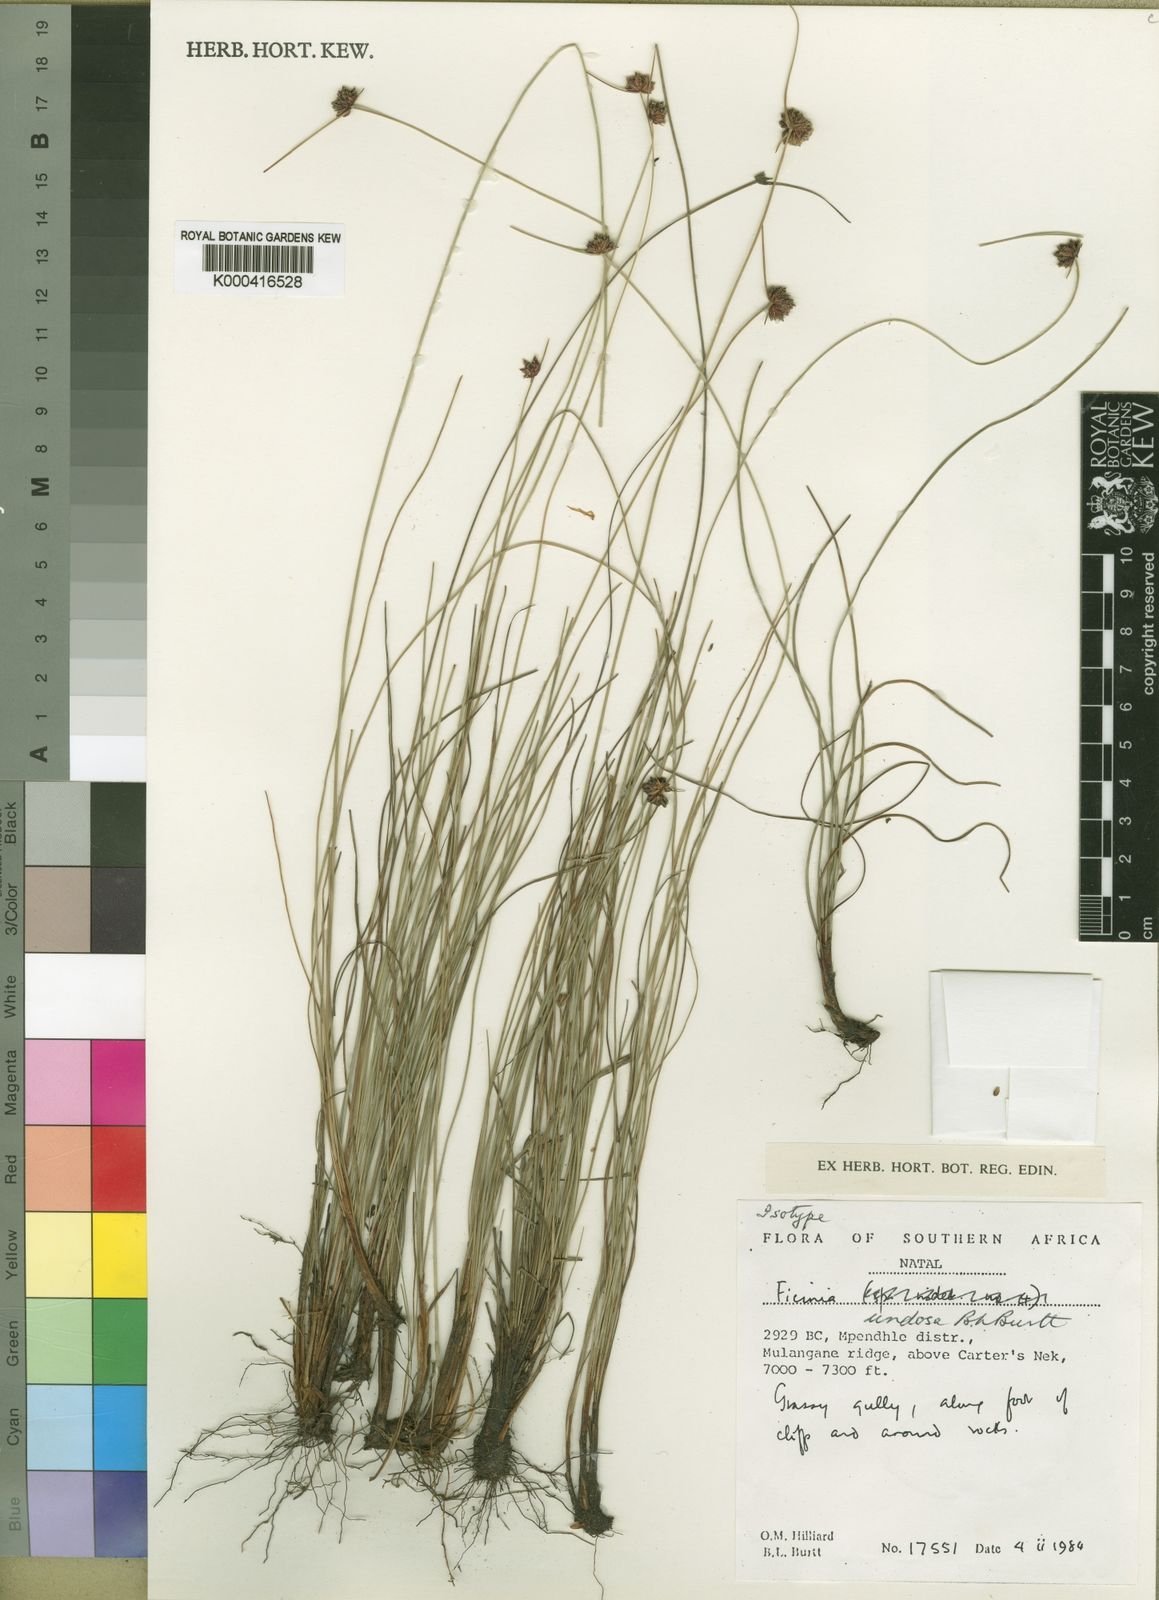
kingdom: Plantae
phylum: Tracheophyta
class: Liliopsida
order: Poales
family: Cyperaceae
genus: Ficinia
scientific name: Ficinia undosa
